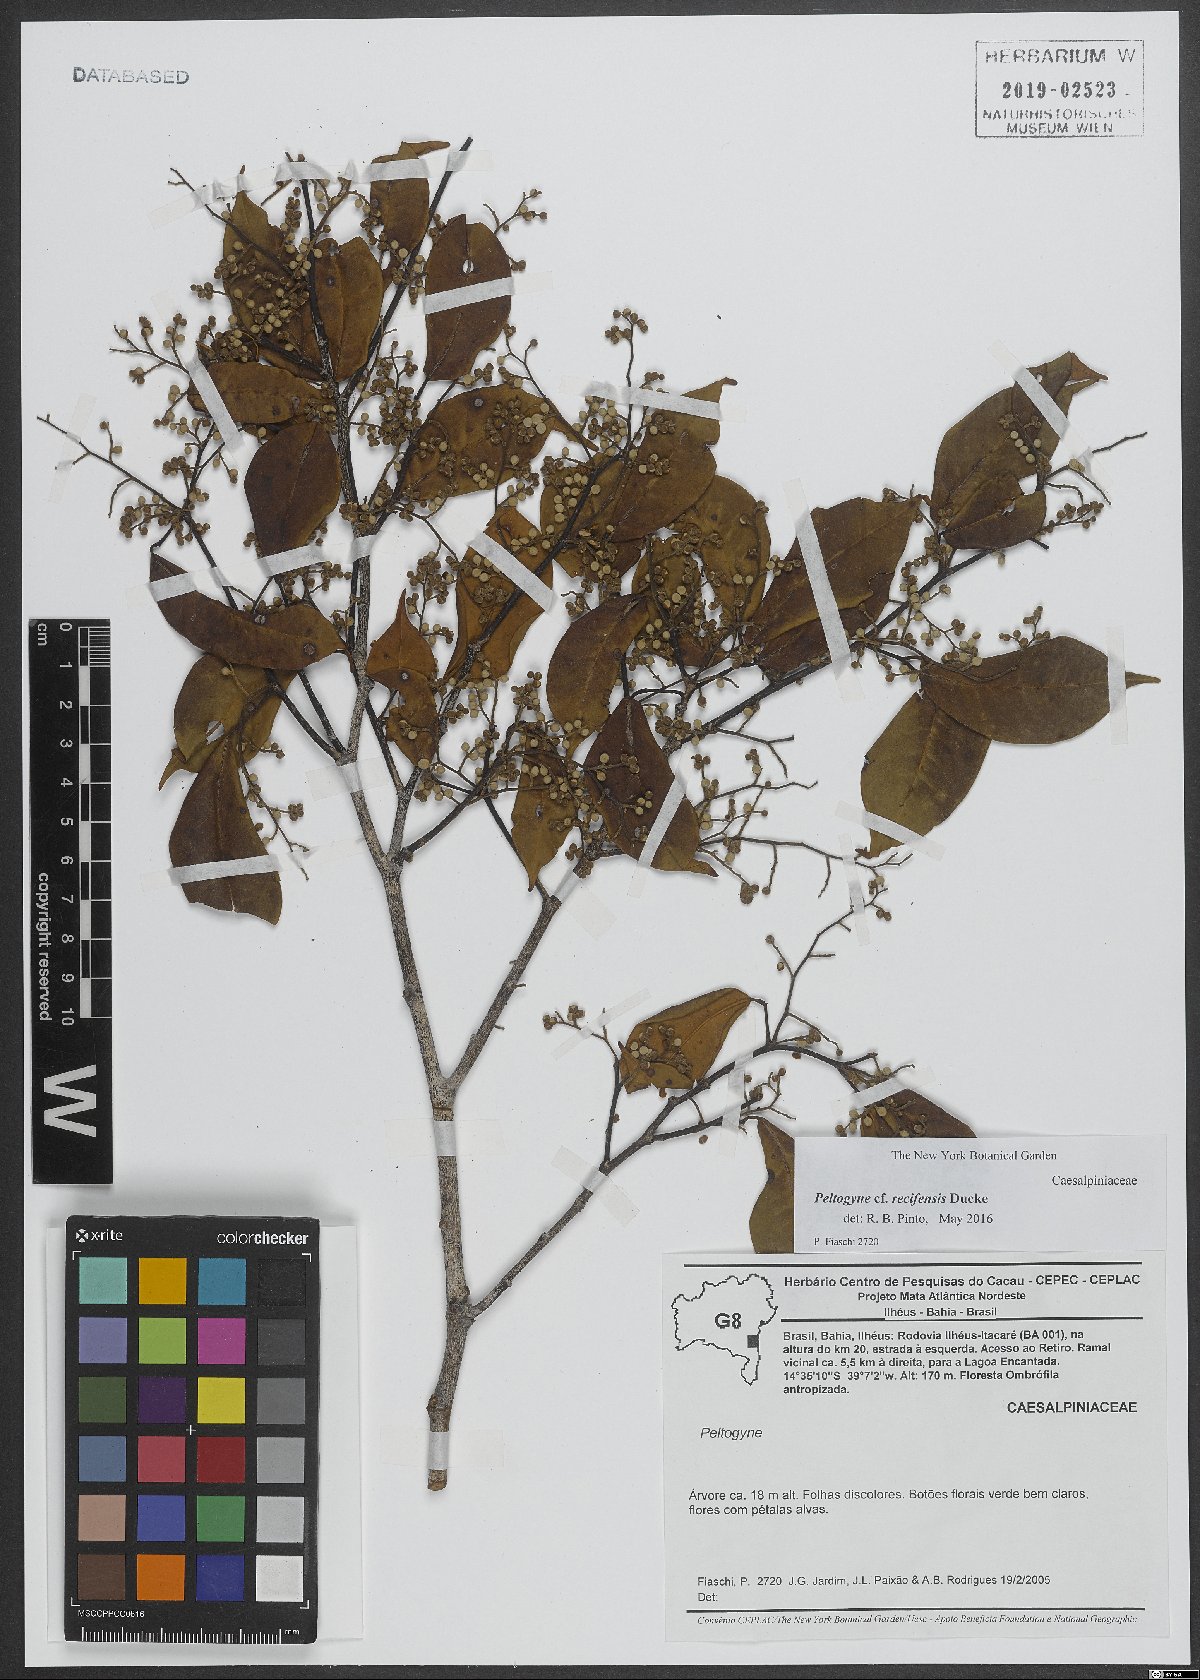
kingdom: Plantae
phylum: Tracheophyta
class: Magnoliopsida
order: Fabales
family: Fabaceae
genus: Peltogyne
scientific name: Peltogyne recifensis
